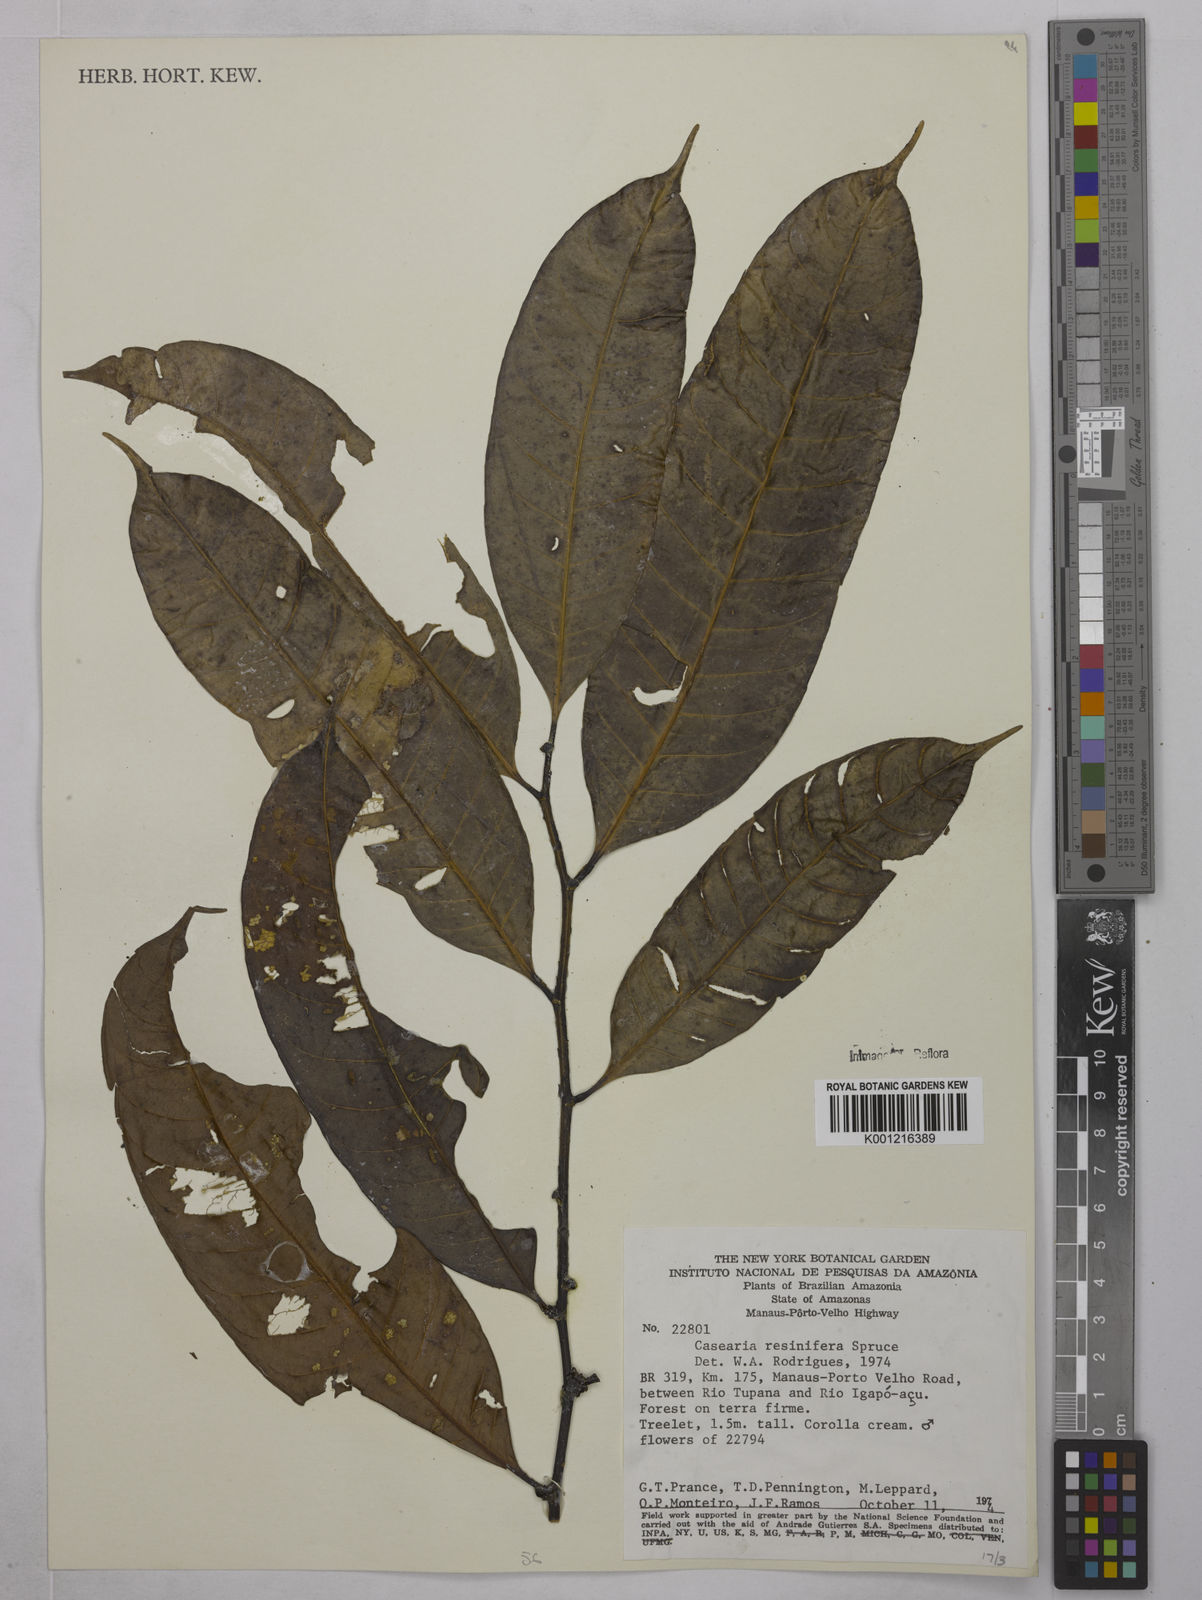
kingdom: Plantae
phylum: Tracheophyta
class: Magnoliopsida
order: Malpighiales
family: Salicaceae
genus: Casearia
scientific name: Casearia resinifera
